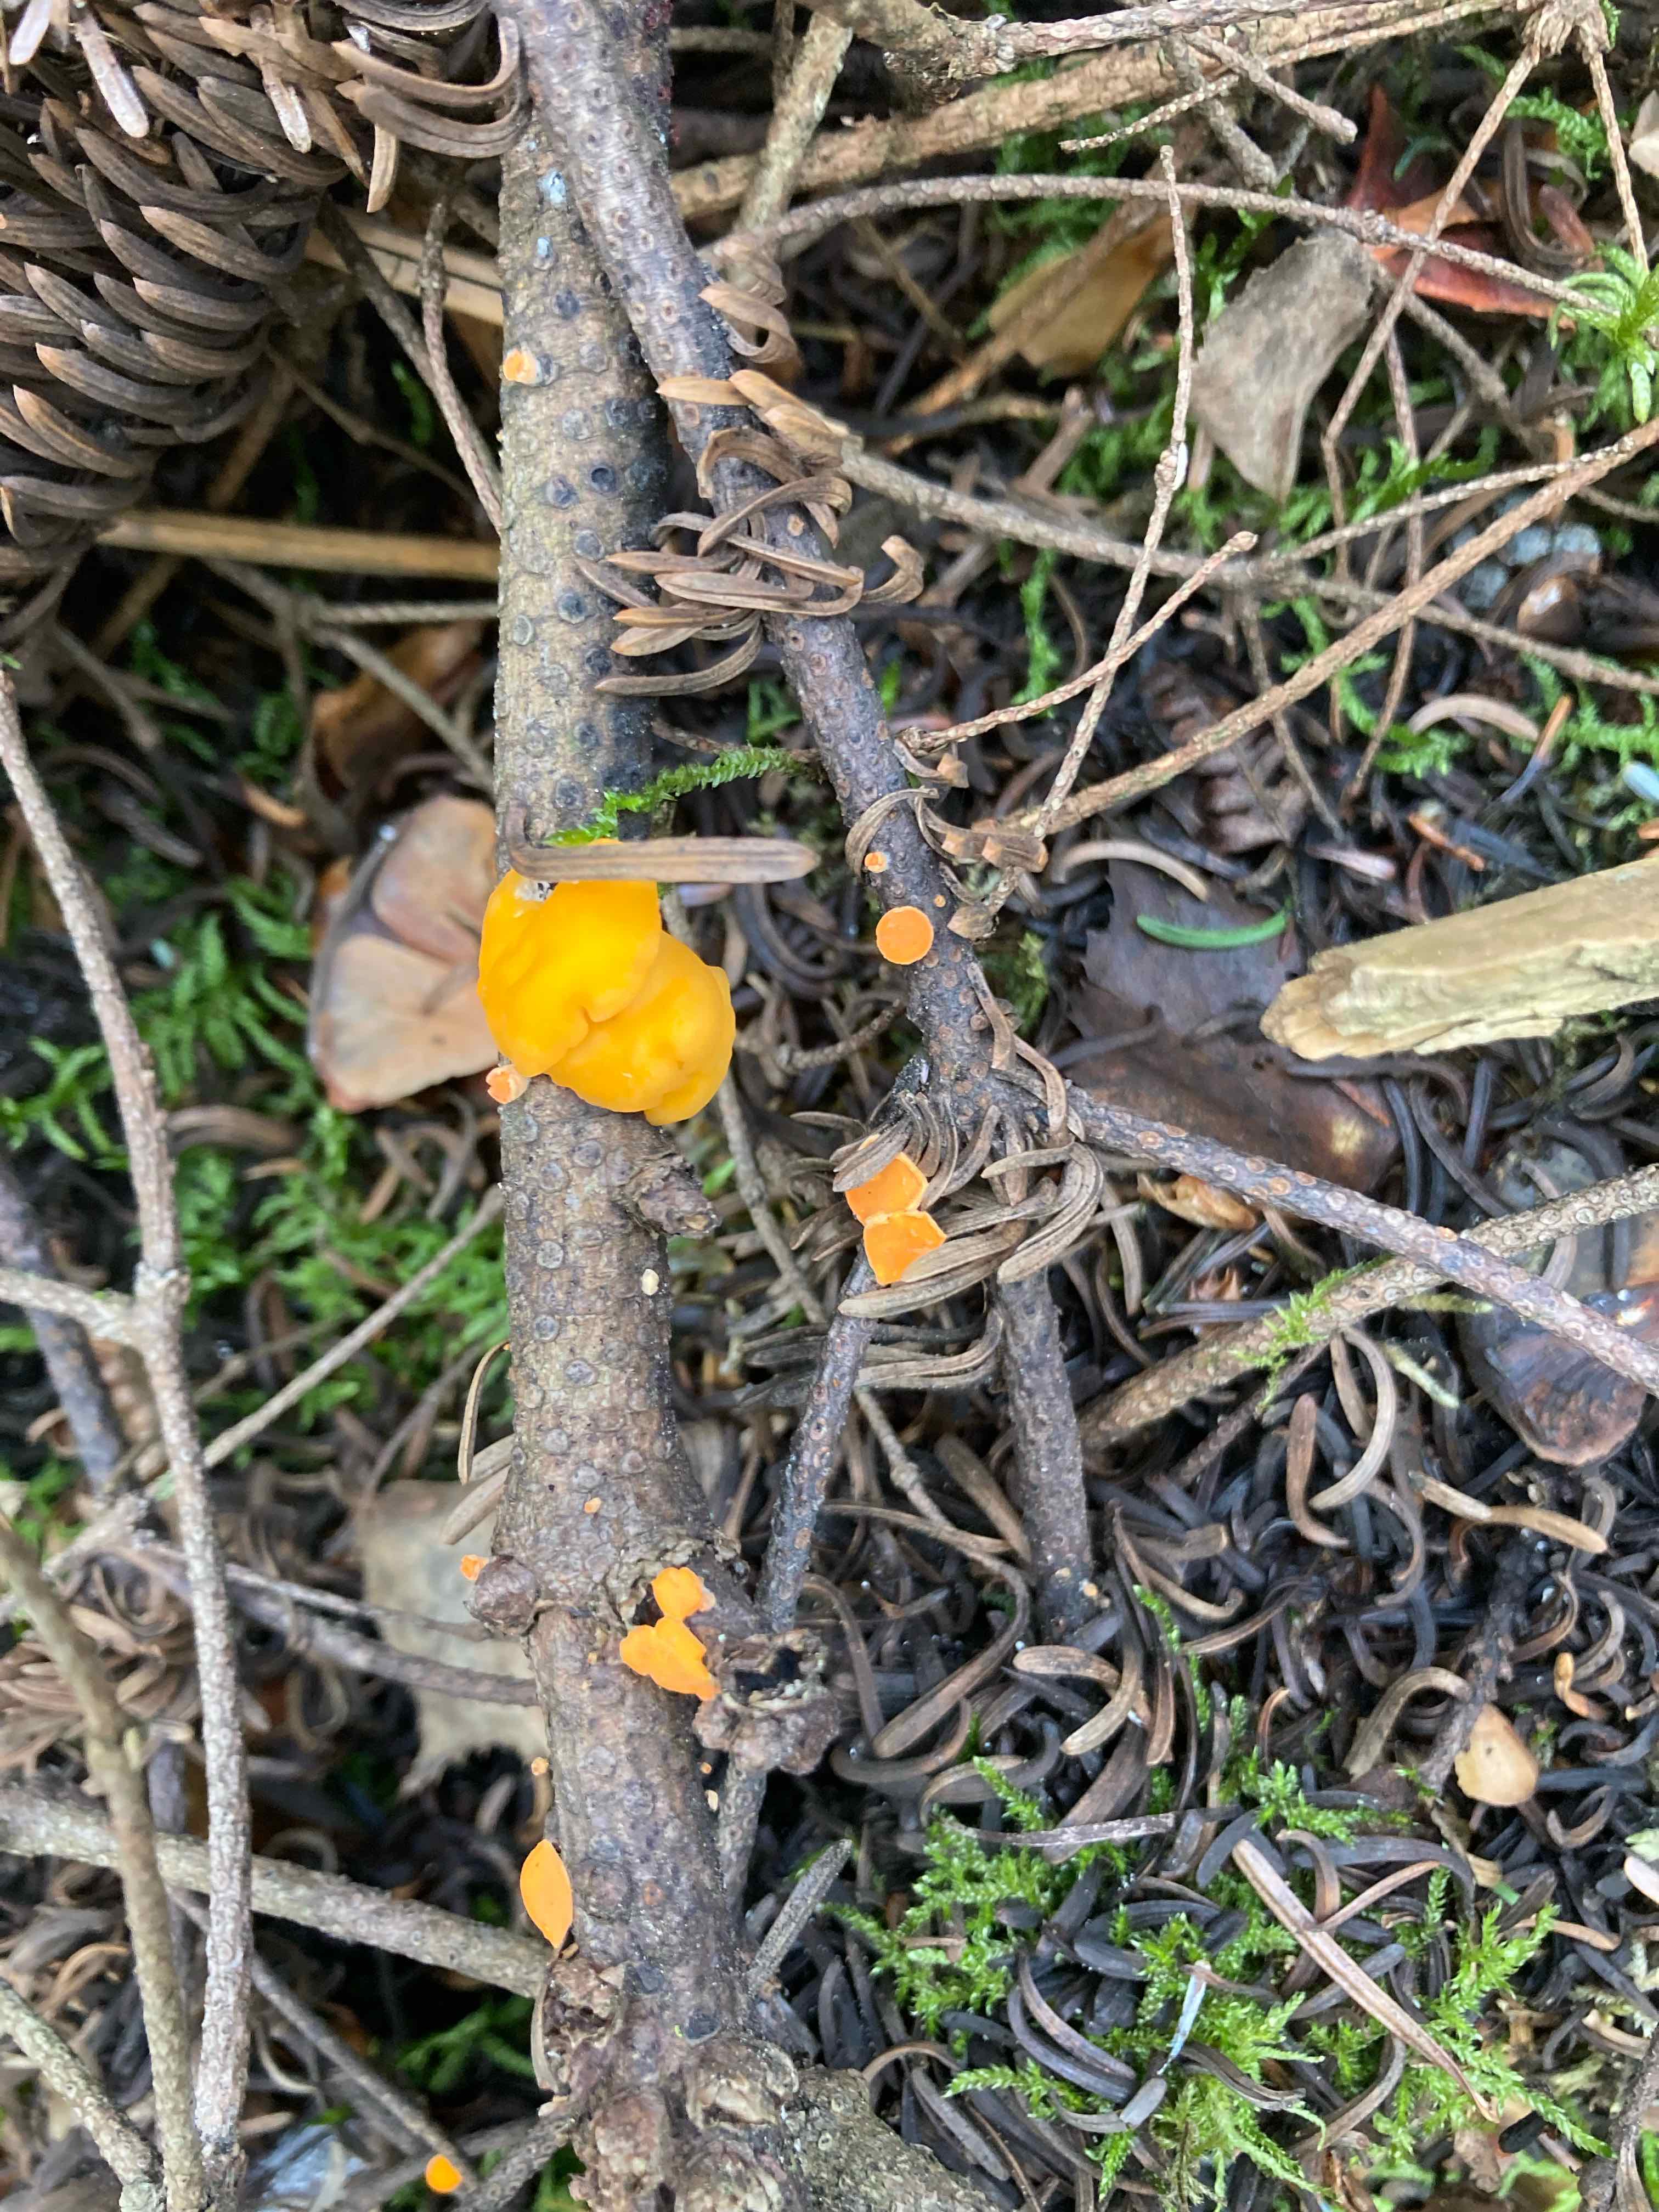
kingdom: Fungi
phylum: Ascomycota
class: Pezizomycetes
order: Pezizales
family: Sarcoscyphaceae
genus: Pithya
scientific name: Pithya vulgaris
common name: stor dukatbæger
